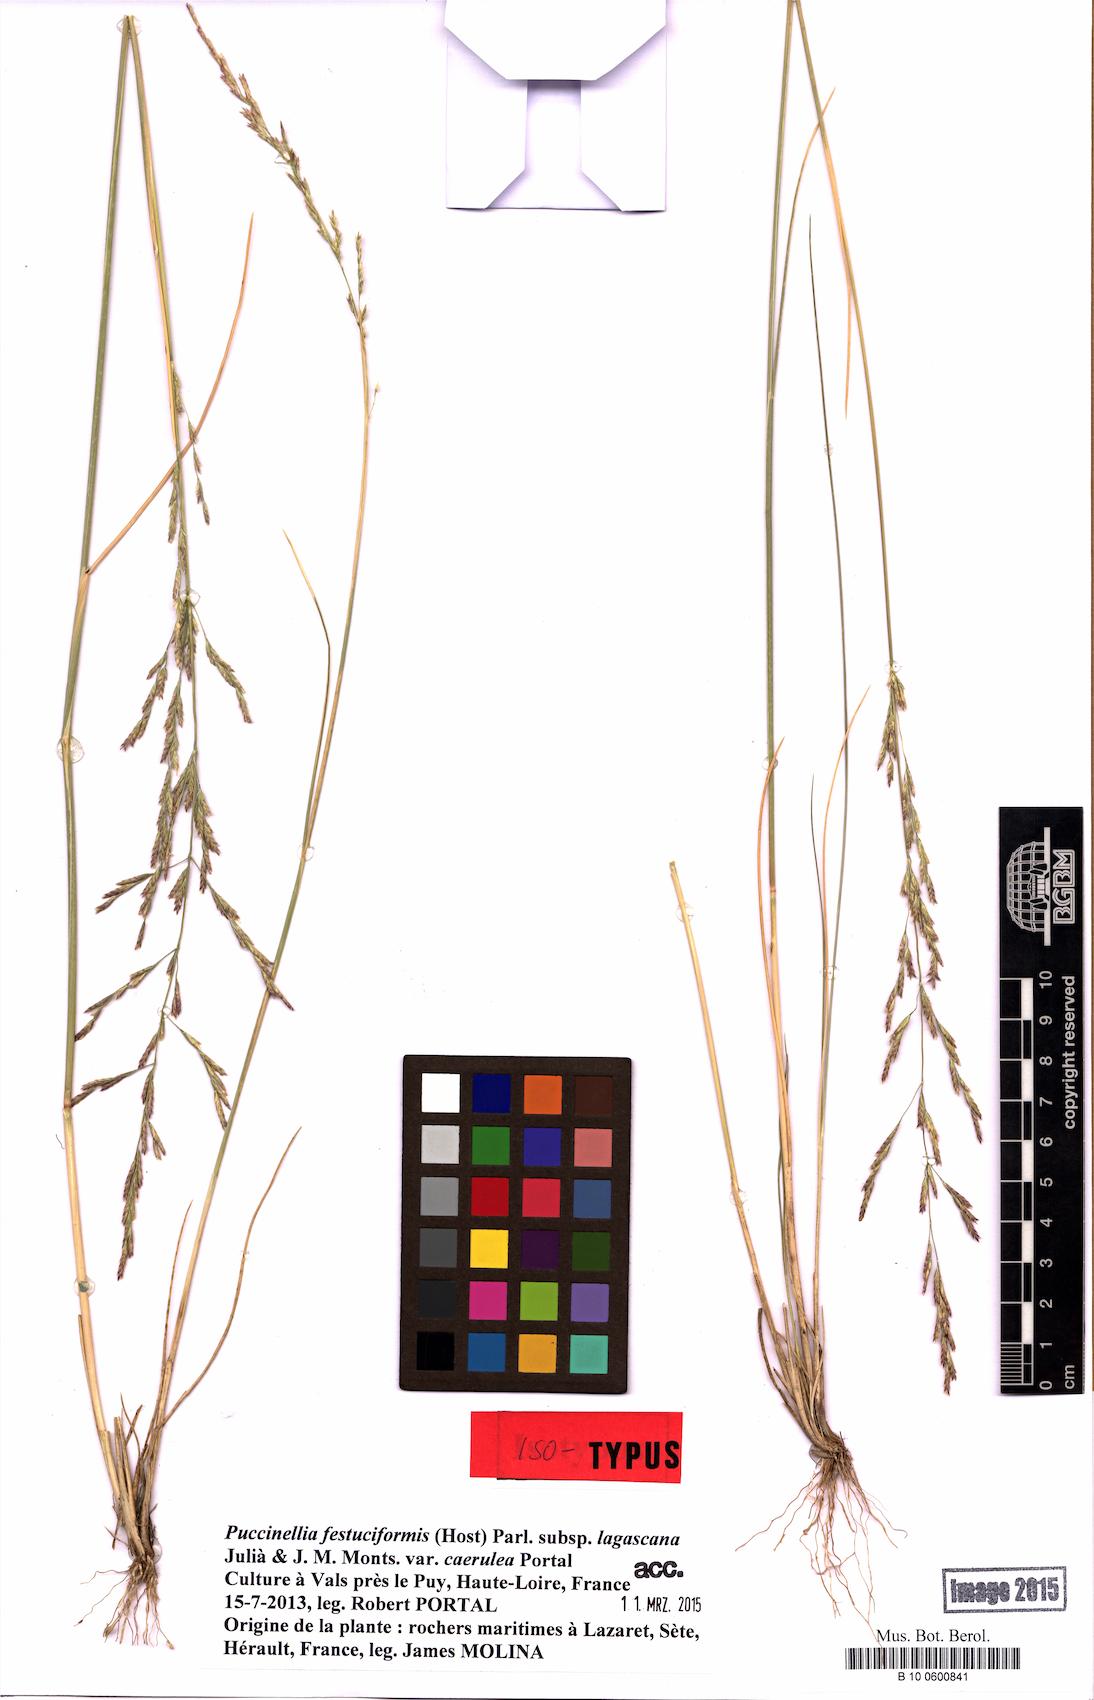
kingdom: Plantae
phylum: Tracheophyta
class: Liliopsida
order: Poales
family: Poaceae
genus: Puccinellia
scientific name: Puccinellia festuciformis
